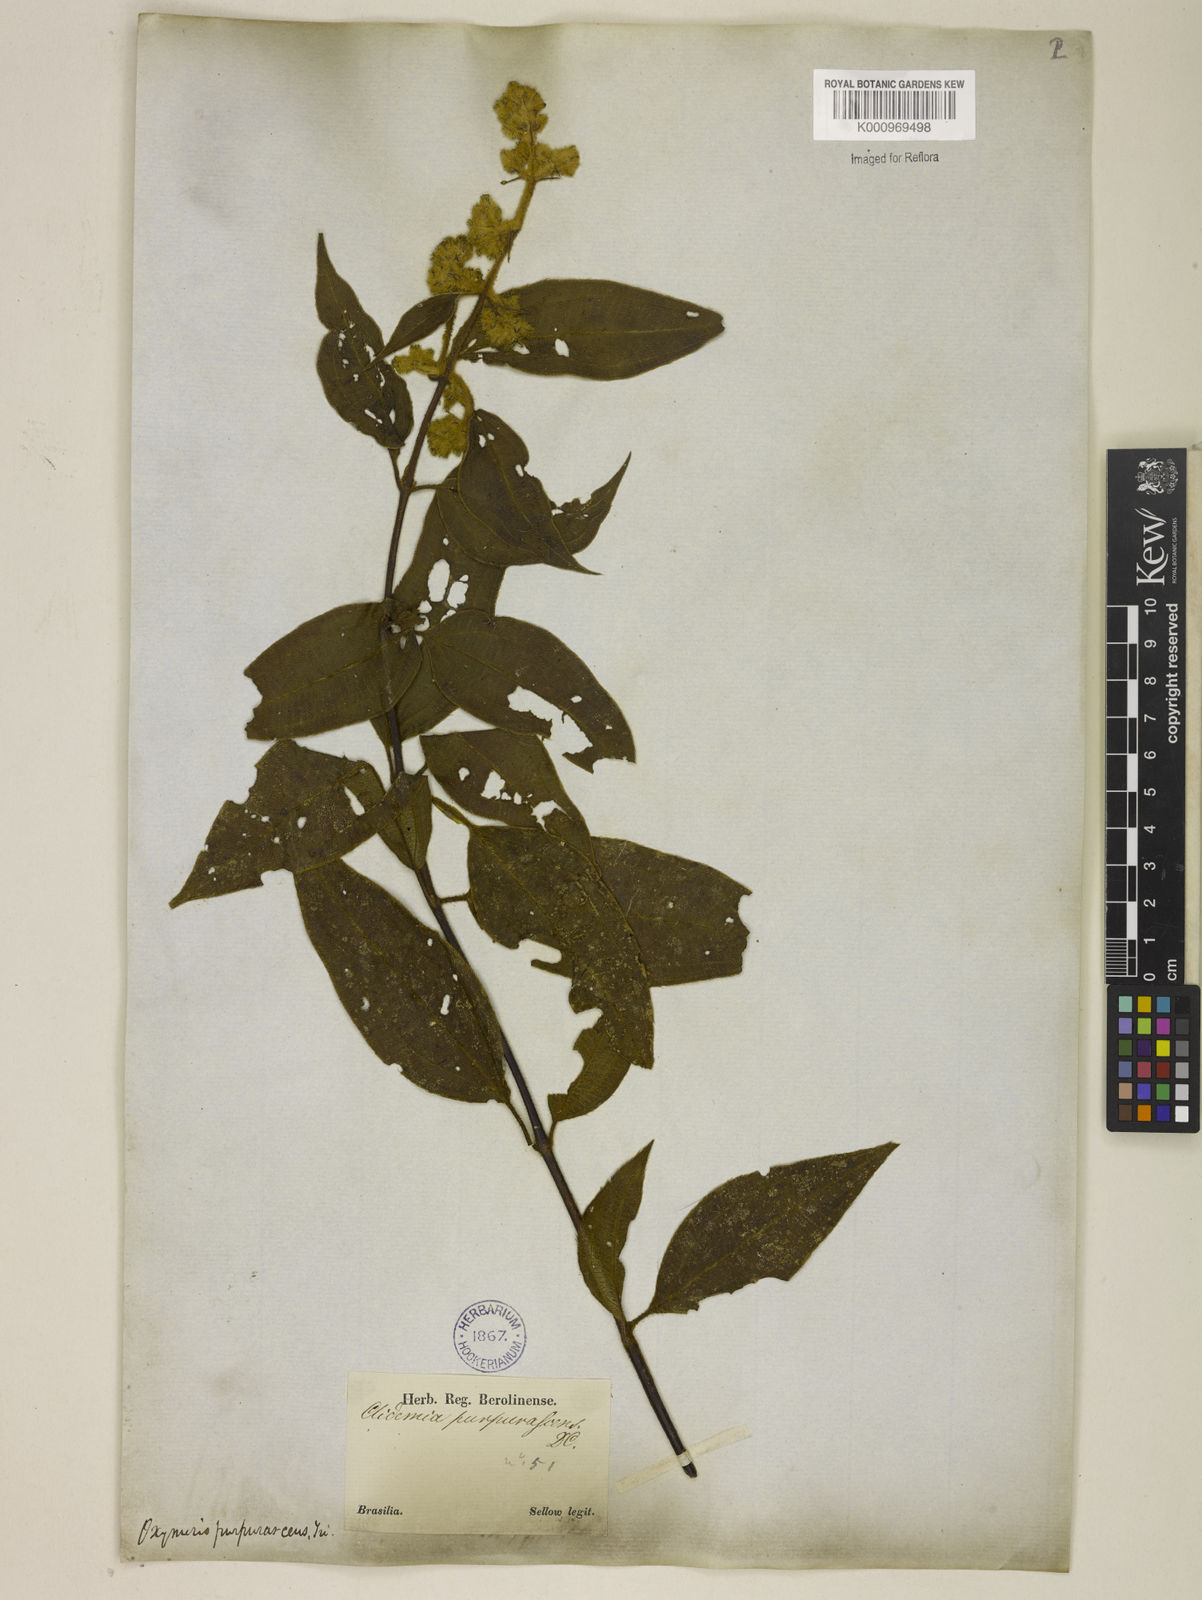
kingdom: Plantae
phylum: Tracheophyta
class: Magnoliopsida
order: Myrtales
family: Melastomataceae
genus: Miconia
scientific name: Miconia microstachya
